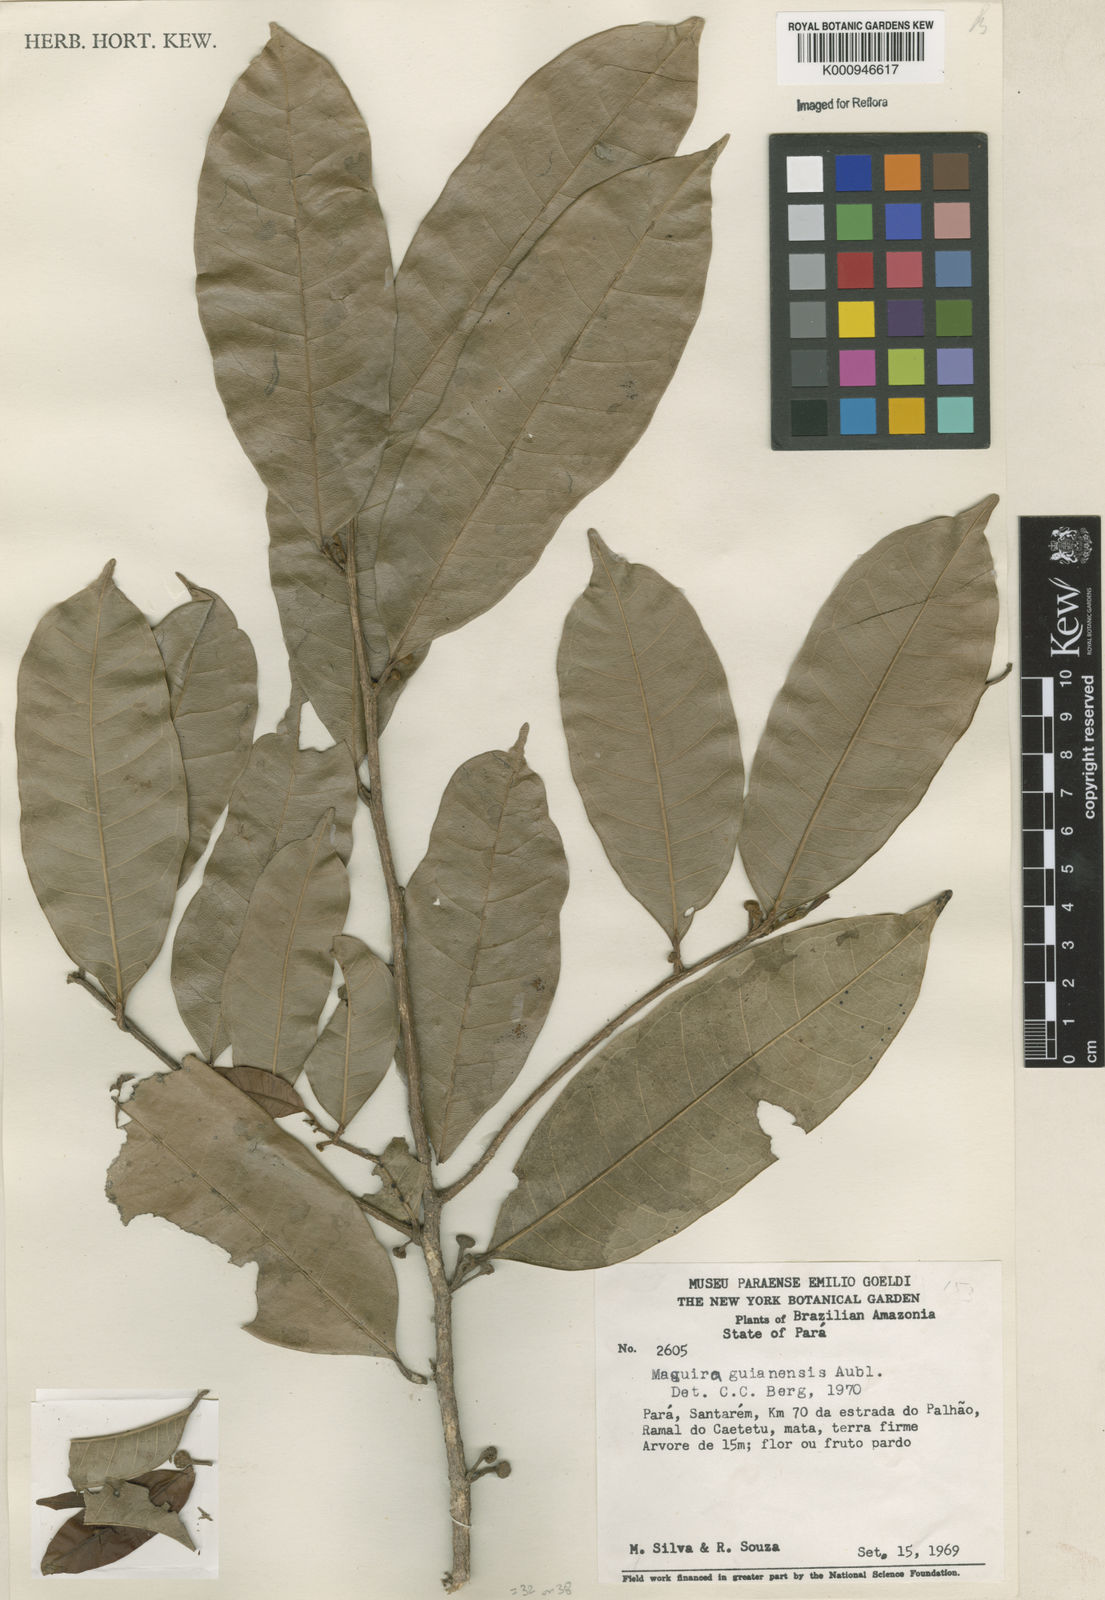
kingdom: Plantae
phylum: Tracheophyta
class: Magnoliopsida
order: Rosales
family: Moraceae
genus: Maquira
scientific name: Maquira guianensis
